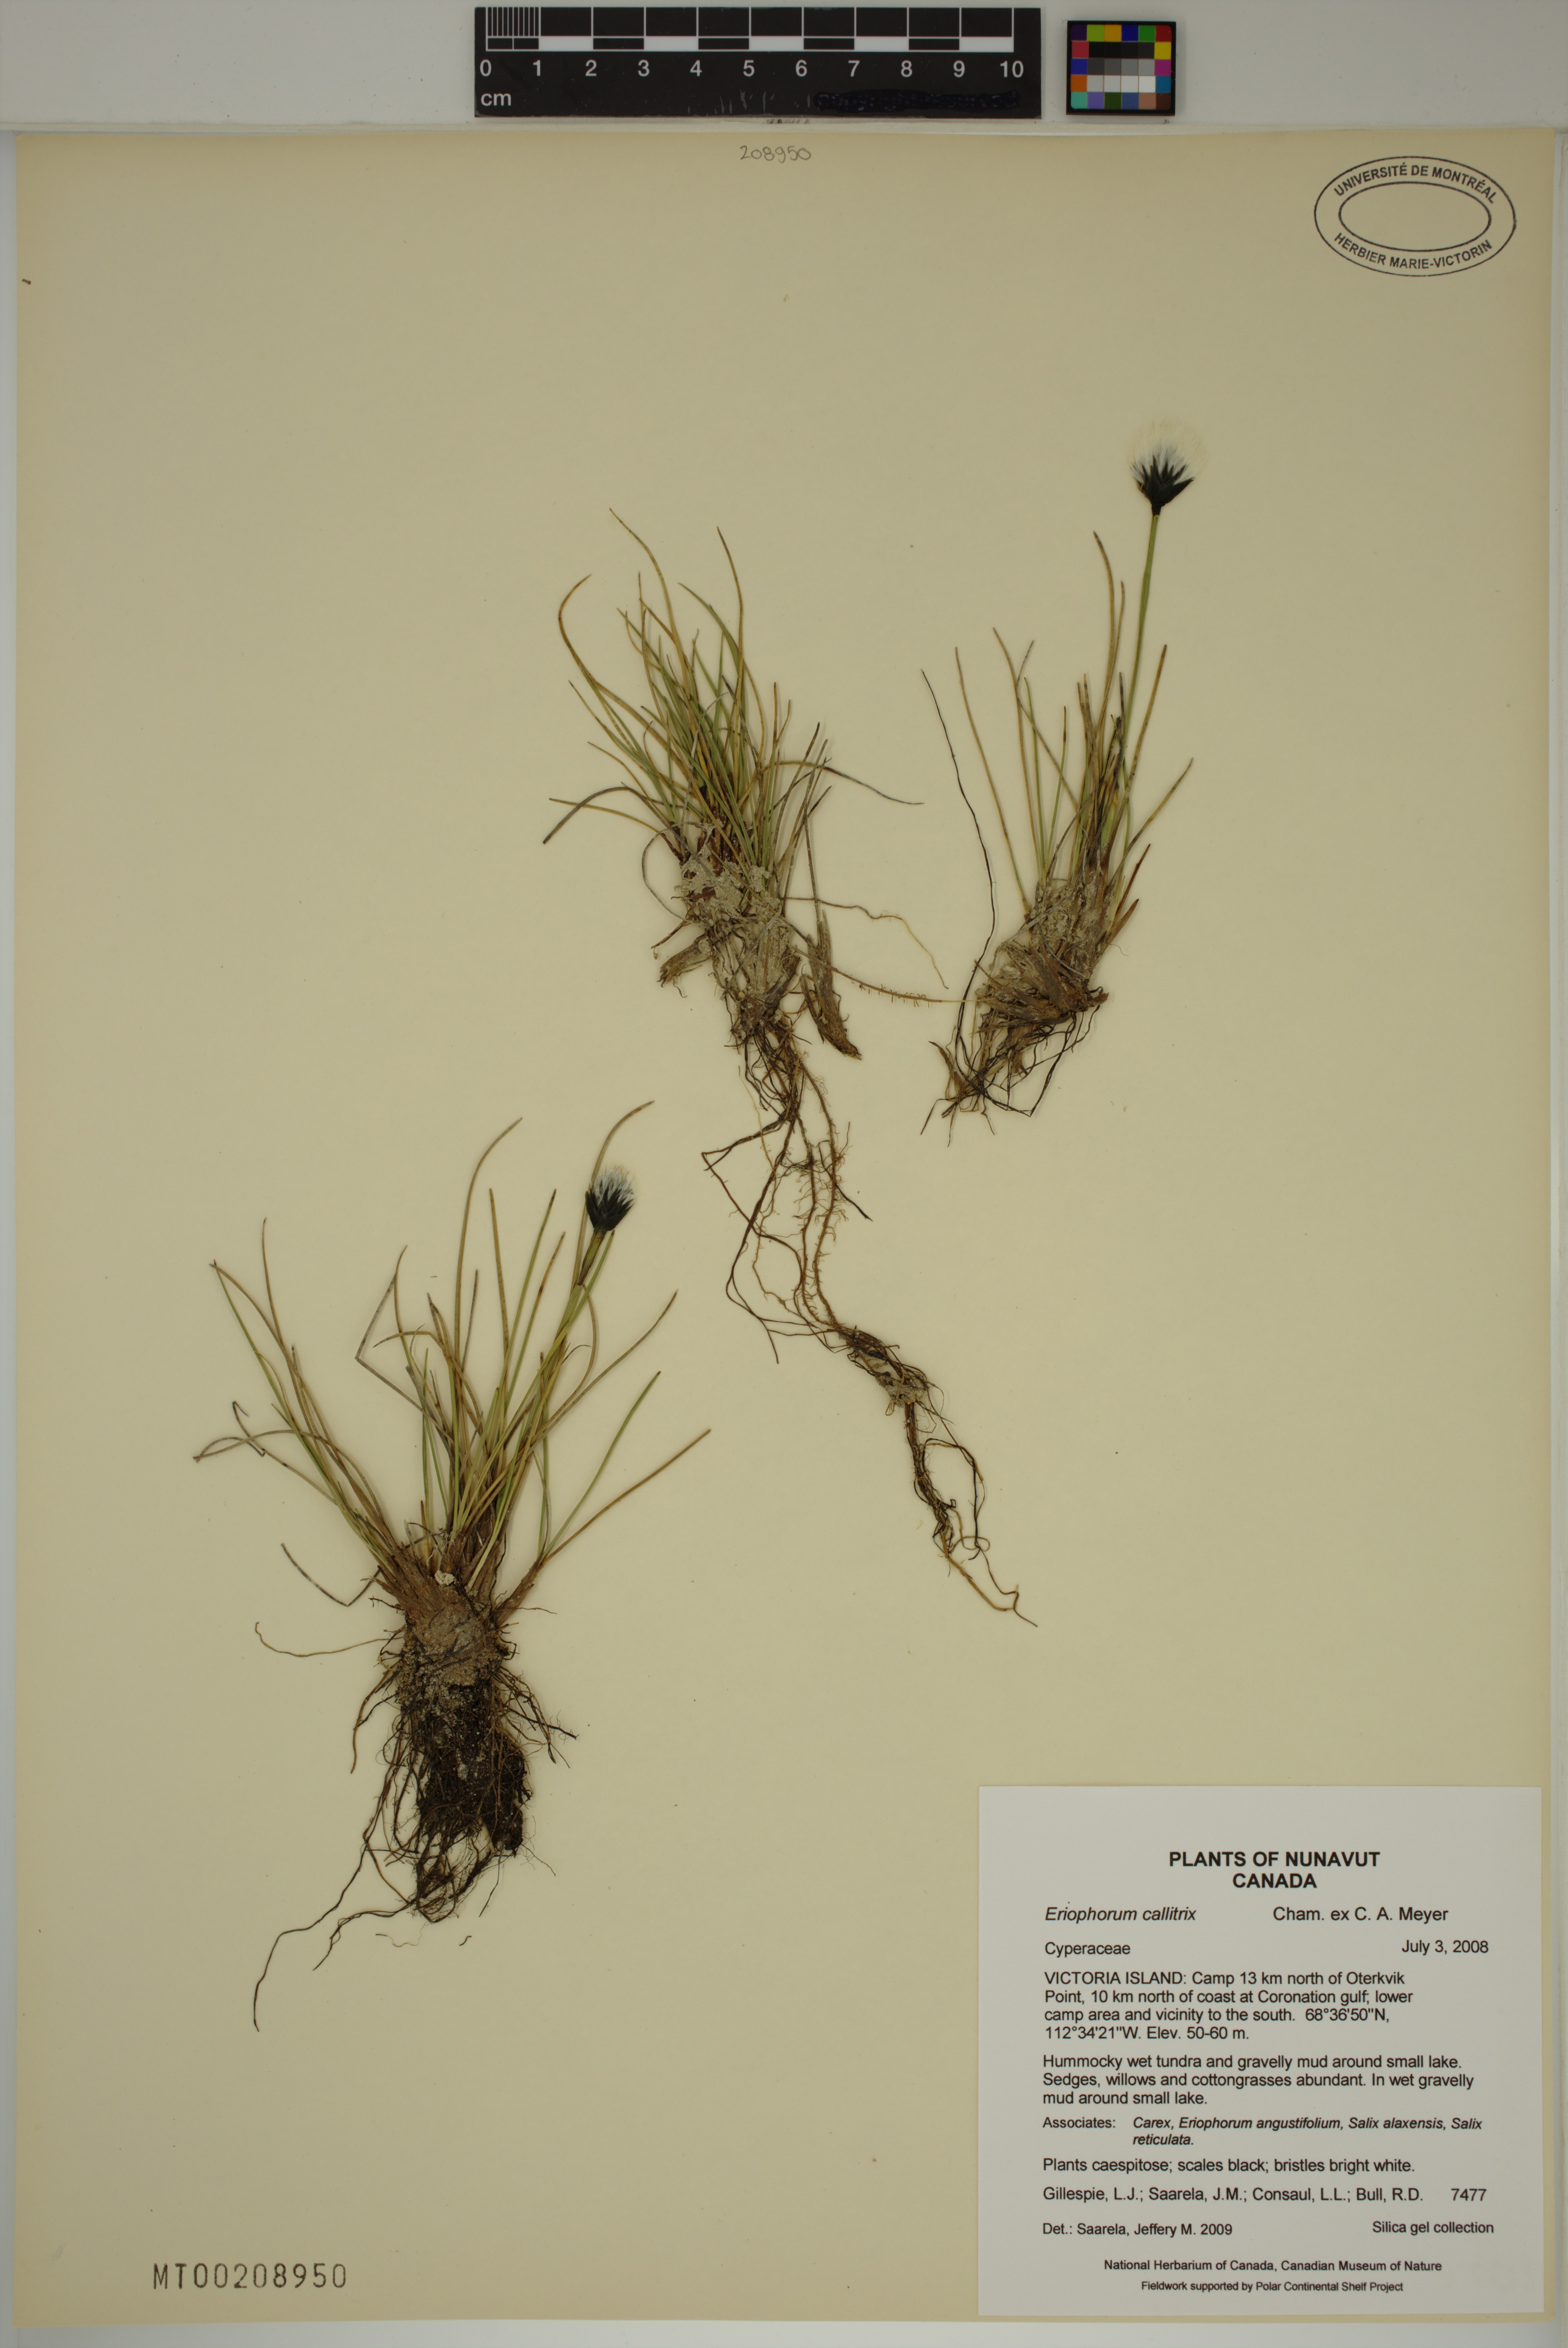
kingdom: Plantae
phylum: Tracheophyta
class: Liliopsida
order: Poales
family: Cyperaceae
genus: Eriophorum
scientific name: Eriophorum callitrix
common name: Arctic cottongrass
